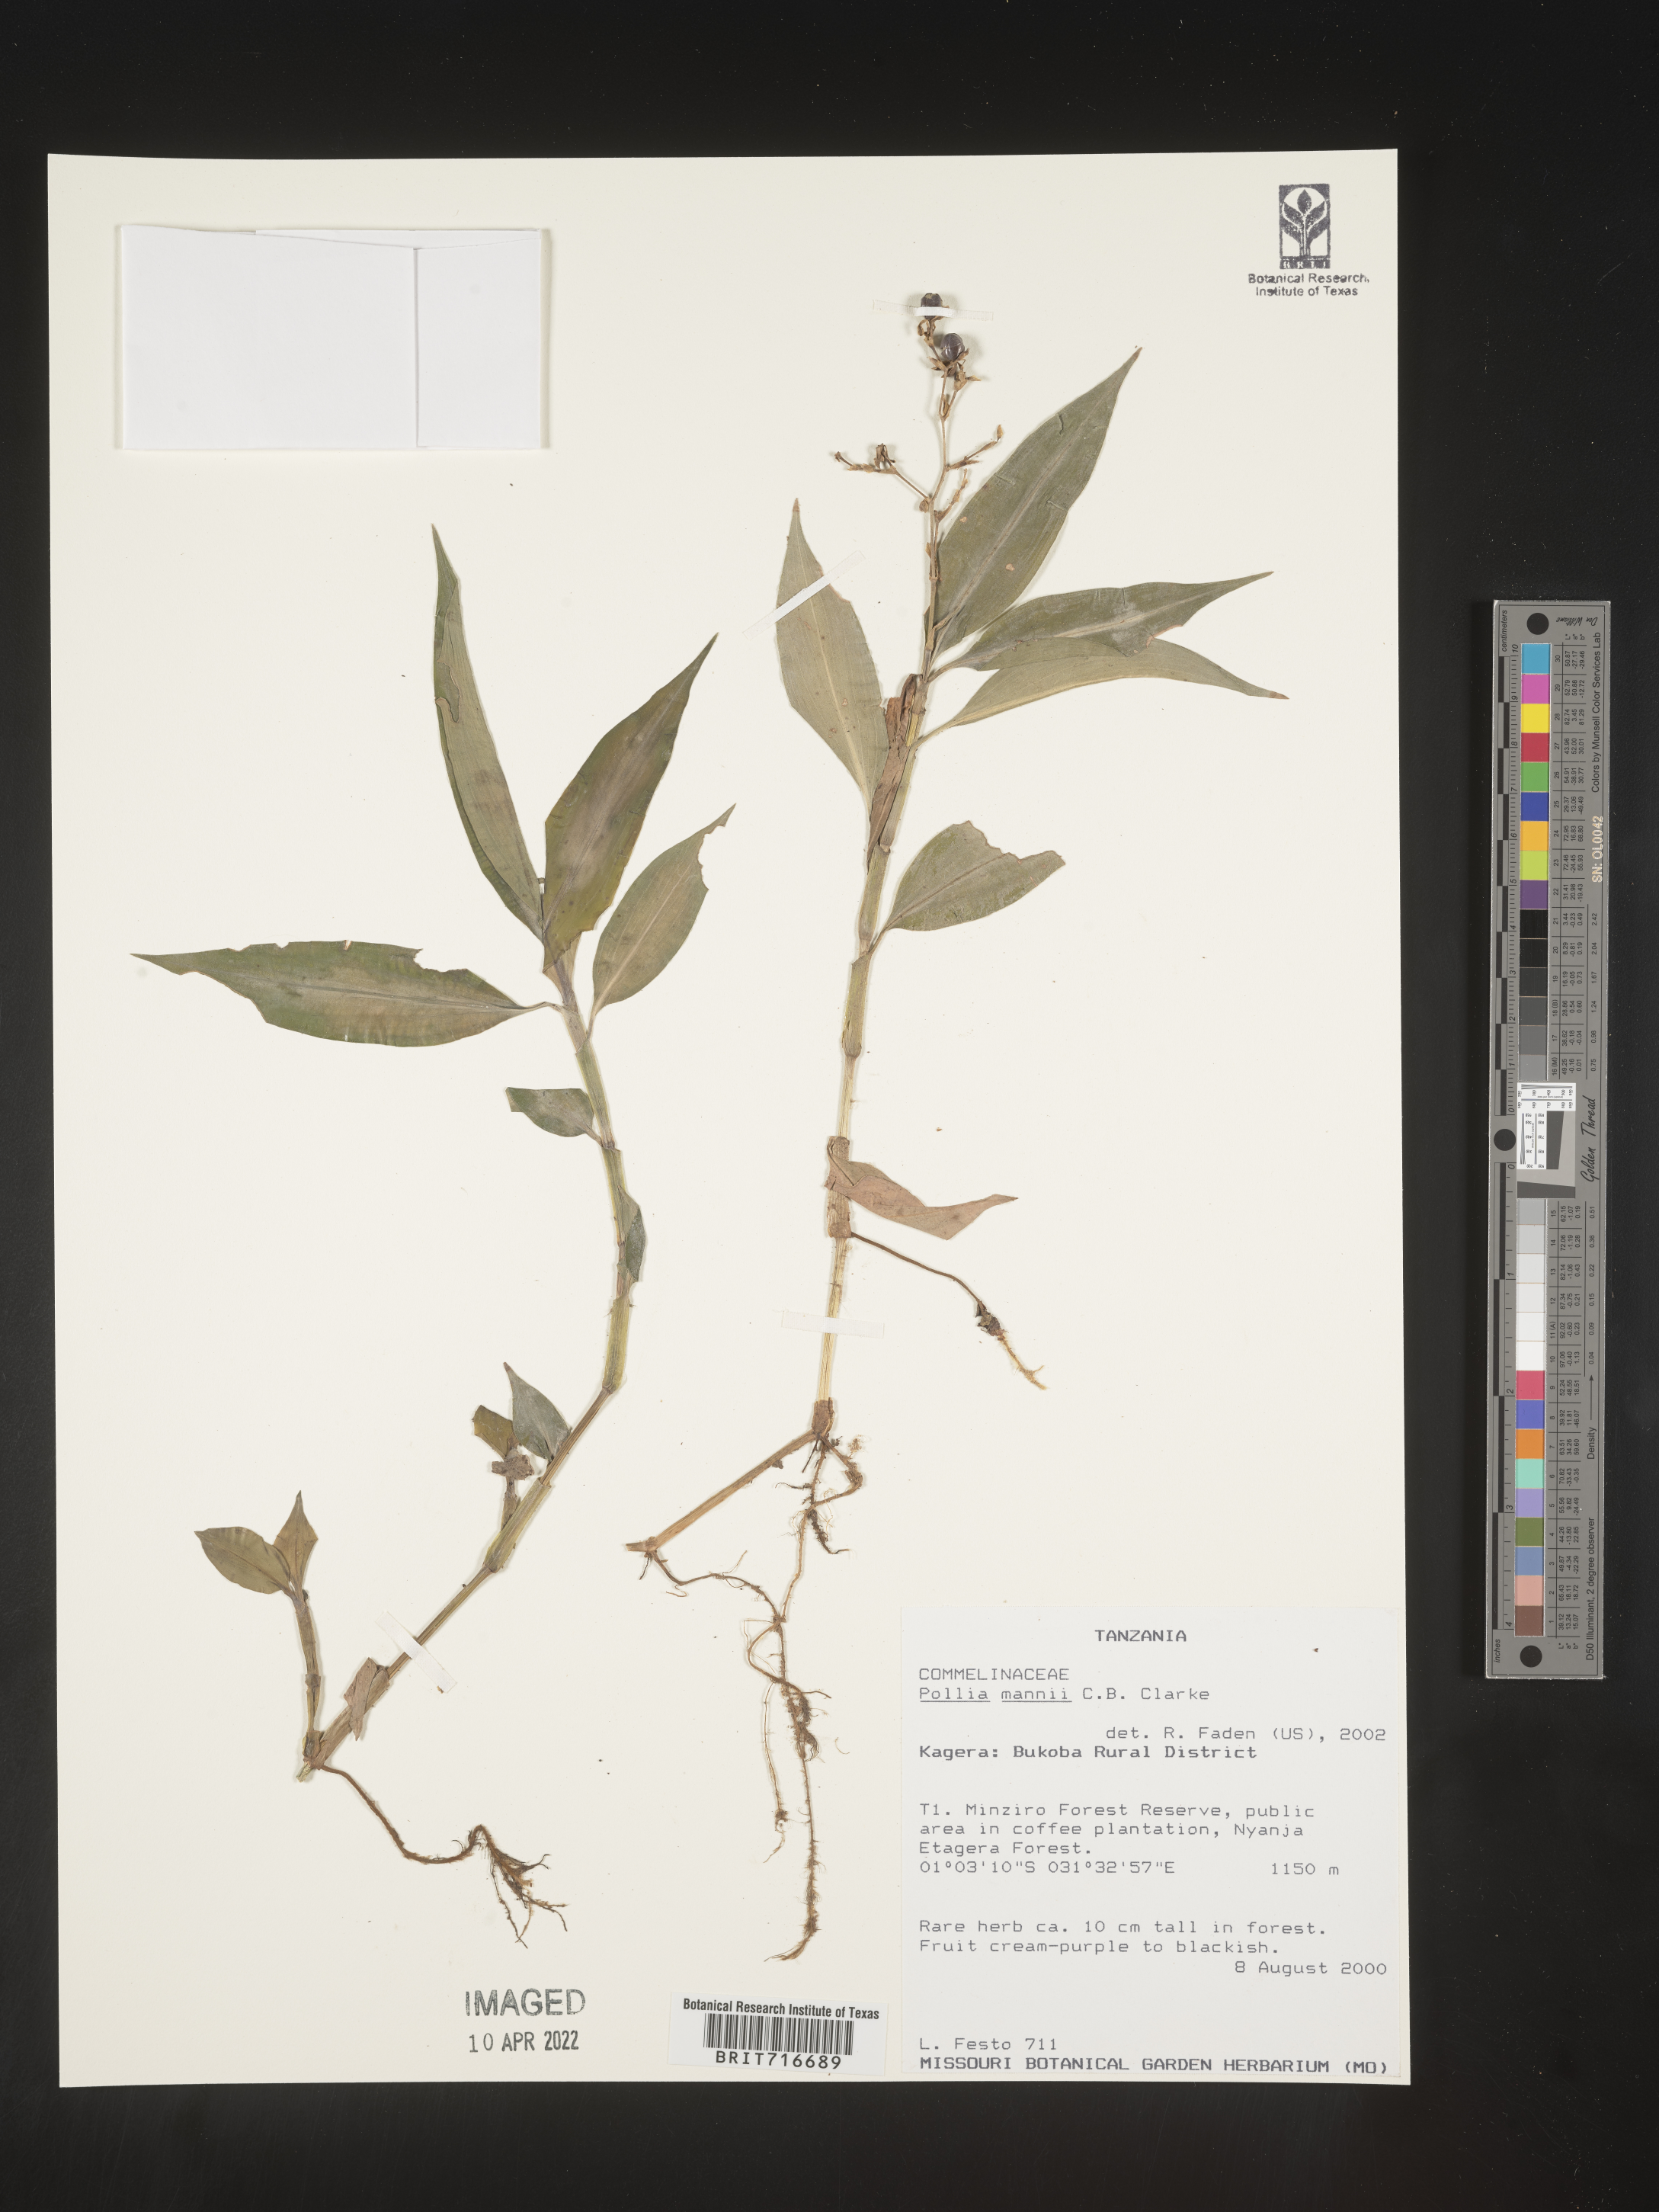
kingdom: Plantae
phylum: Tracheophyta
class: Liliopsida
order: Commelinales
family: Commelinaceae
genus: Pollia
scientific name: Pollia
